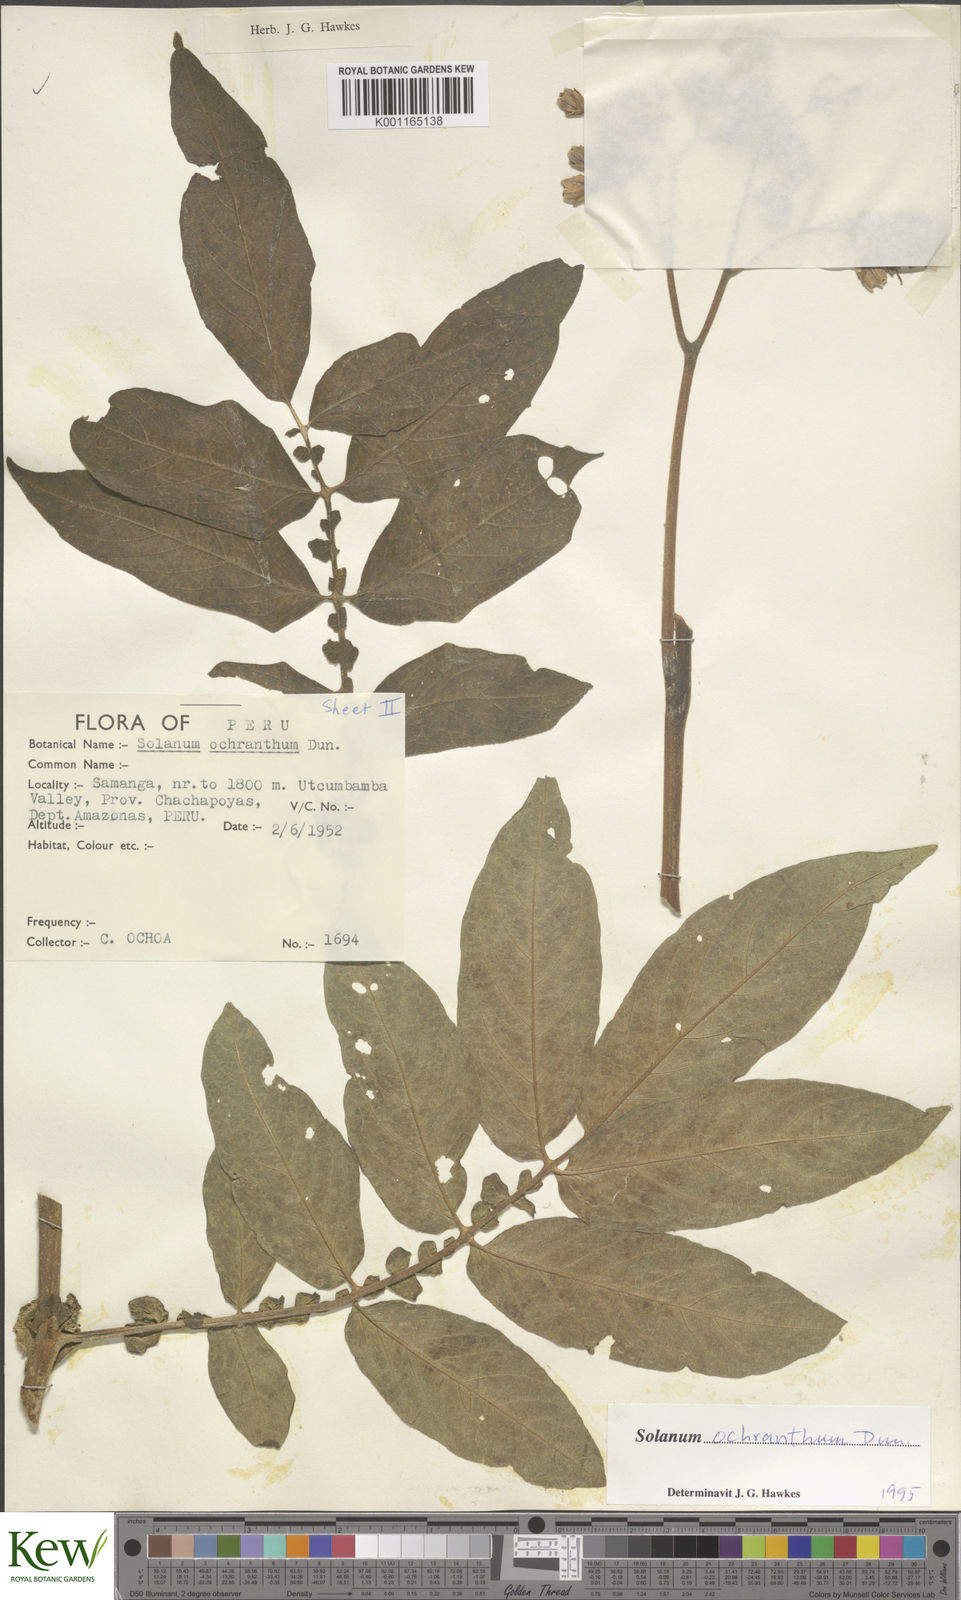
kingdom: Plantae
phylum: Tracheophyta
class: Magnoliopsida
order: Solanales
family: Solanaceae
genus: Solanum
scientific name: Solanum ochranthum
